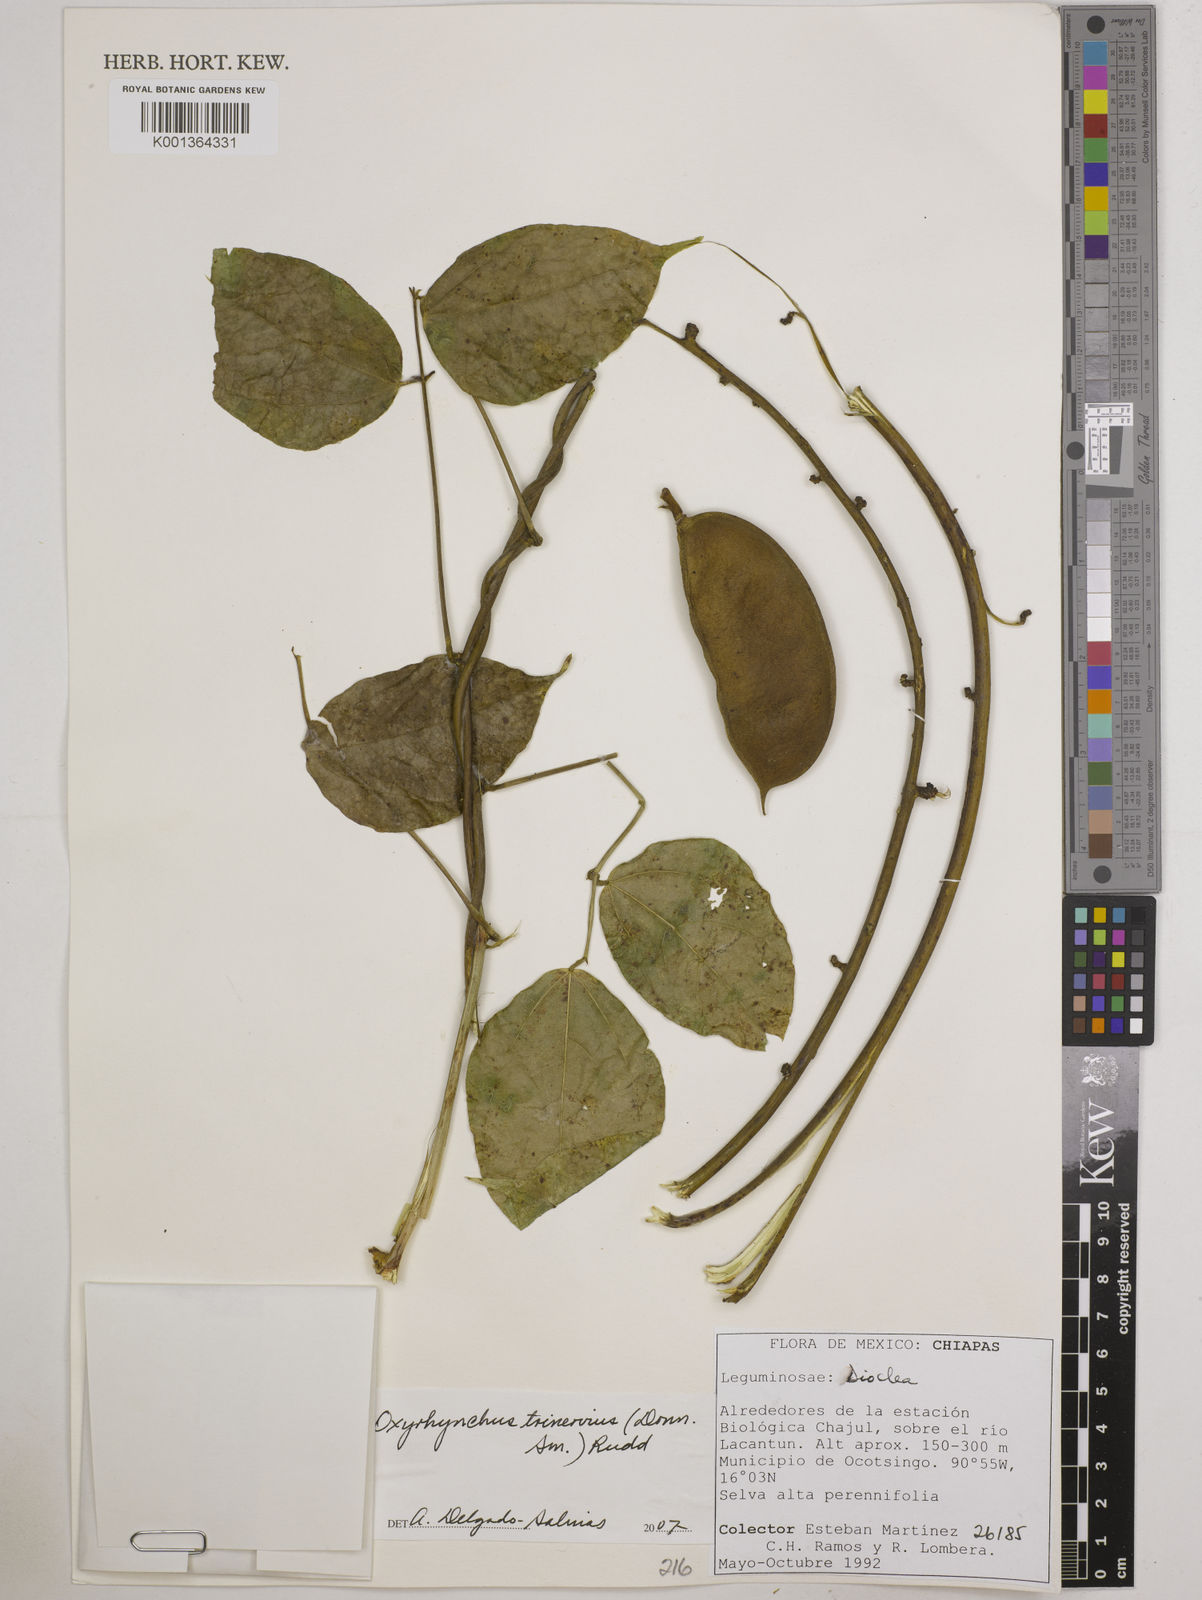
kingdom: Plantae
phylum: Tracheophyta
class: Magnoliopsida
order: Fabales
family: Fabaceae
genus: Oxyrhynchus
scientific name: Oxyrhynchus trinervius
